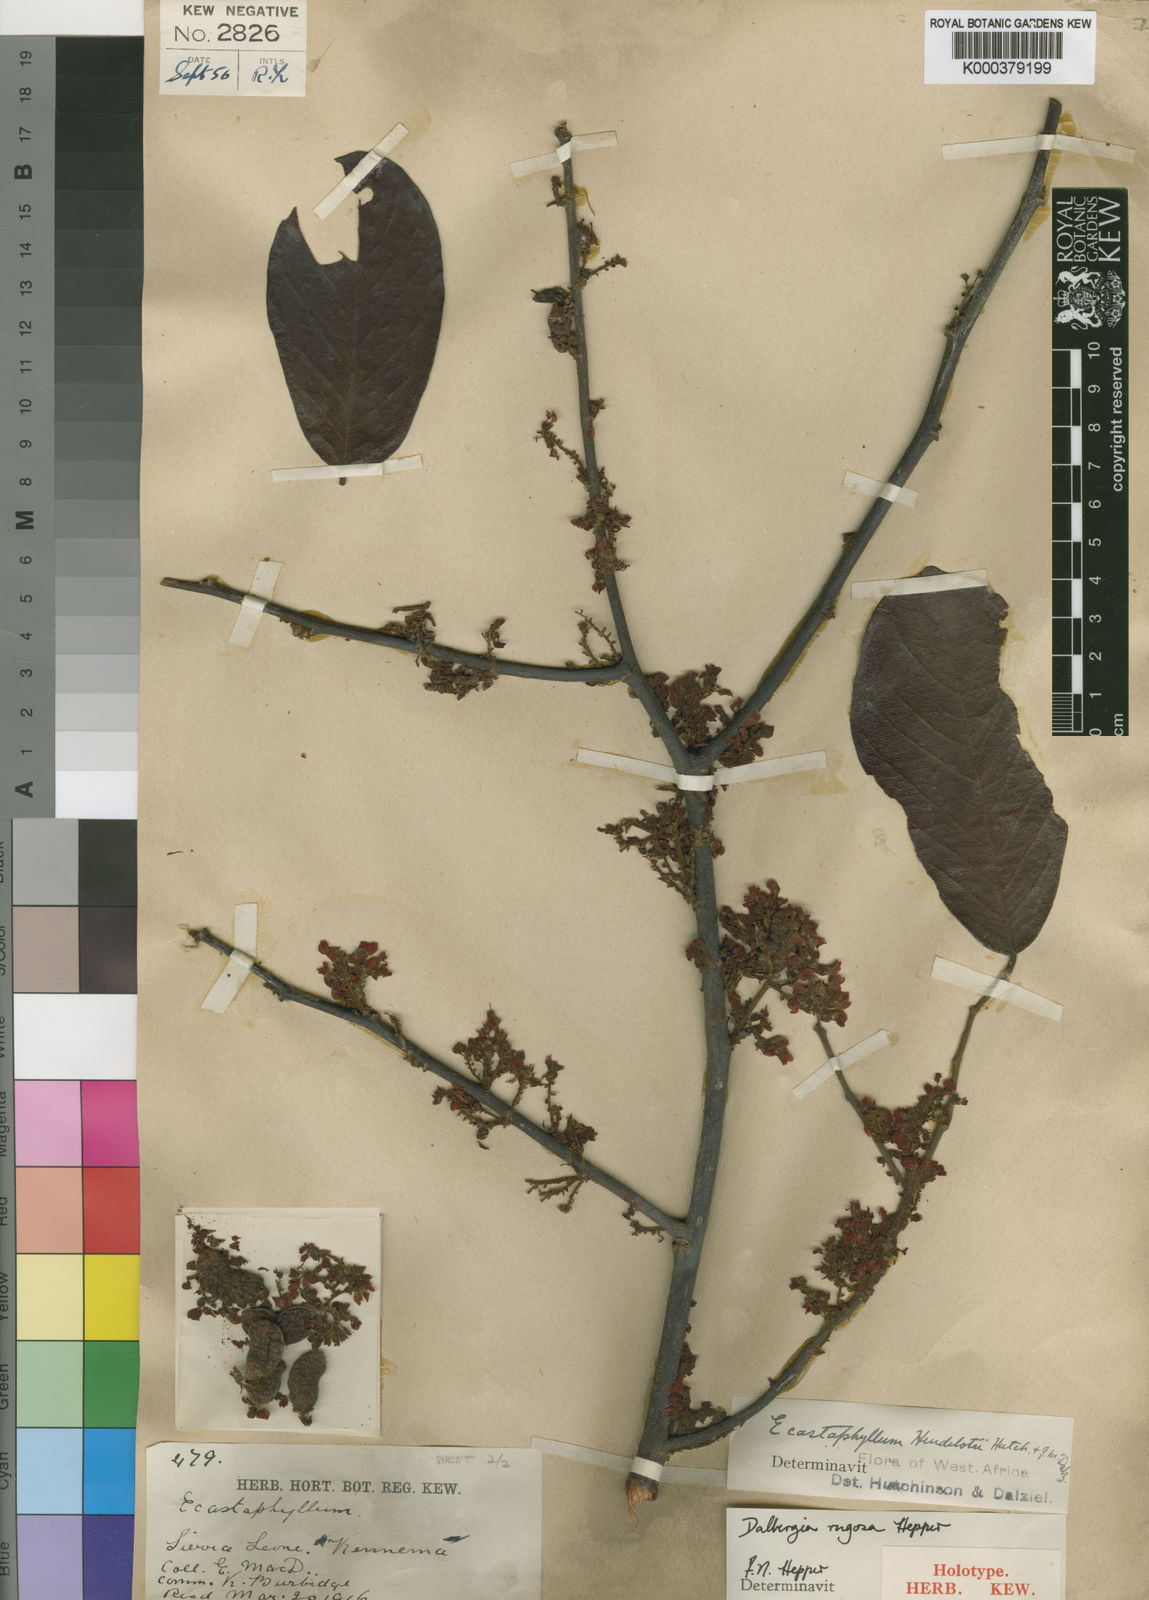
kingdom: Plantae
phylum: Tracheophyta
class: Magnoliopsida
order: Fabales
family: Fabaceae
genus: Dalbergia
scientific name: Dalbergia rugosa
